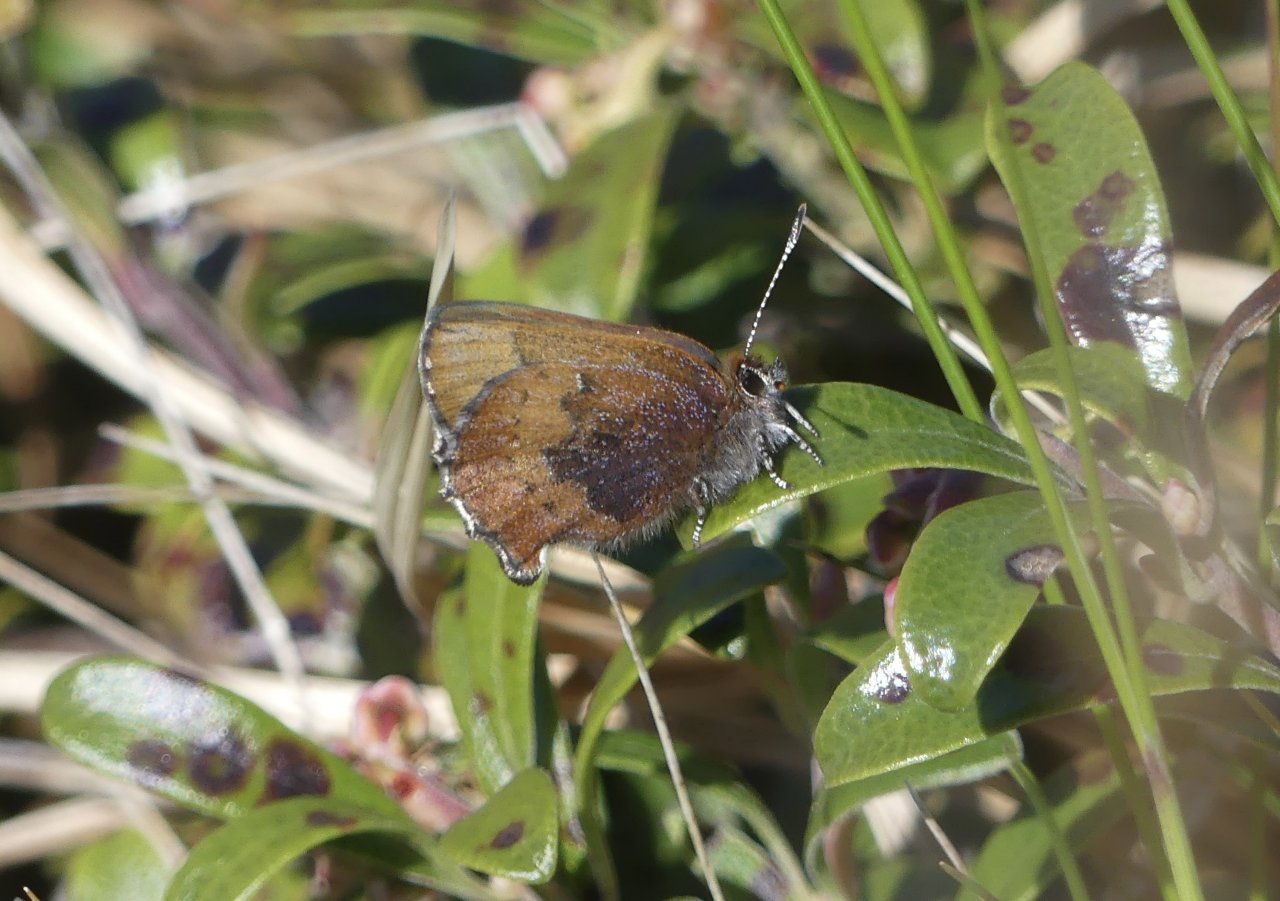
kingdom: Animalia
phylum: Arthropoda
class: Insecta
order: Lepidoptera
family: Lycaenidae
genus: Incisalia
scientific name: Incisalia irioides
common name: Brown Elfin
